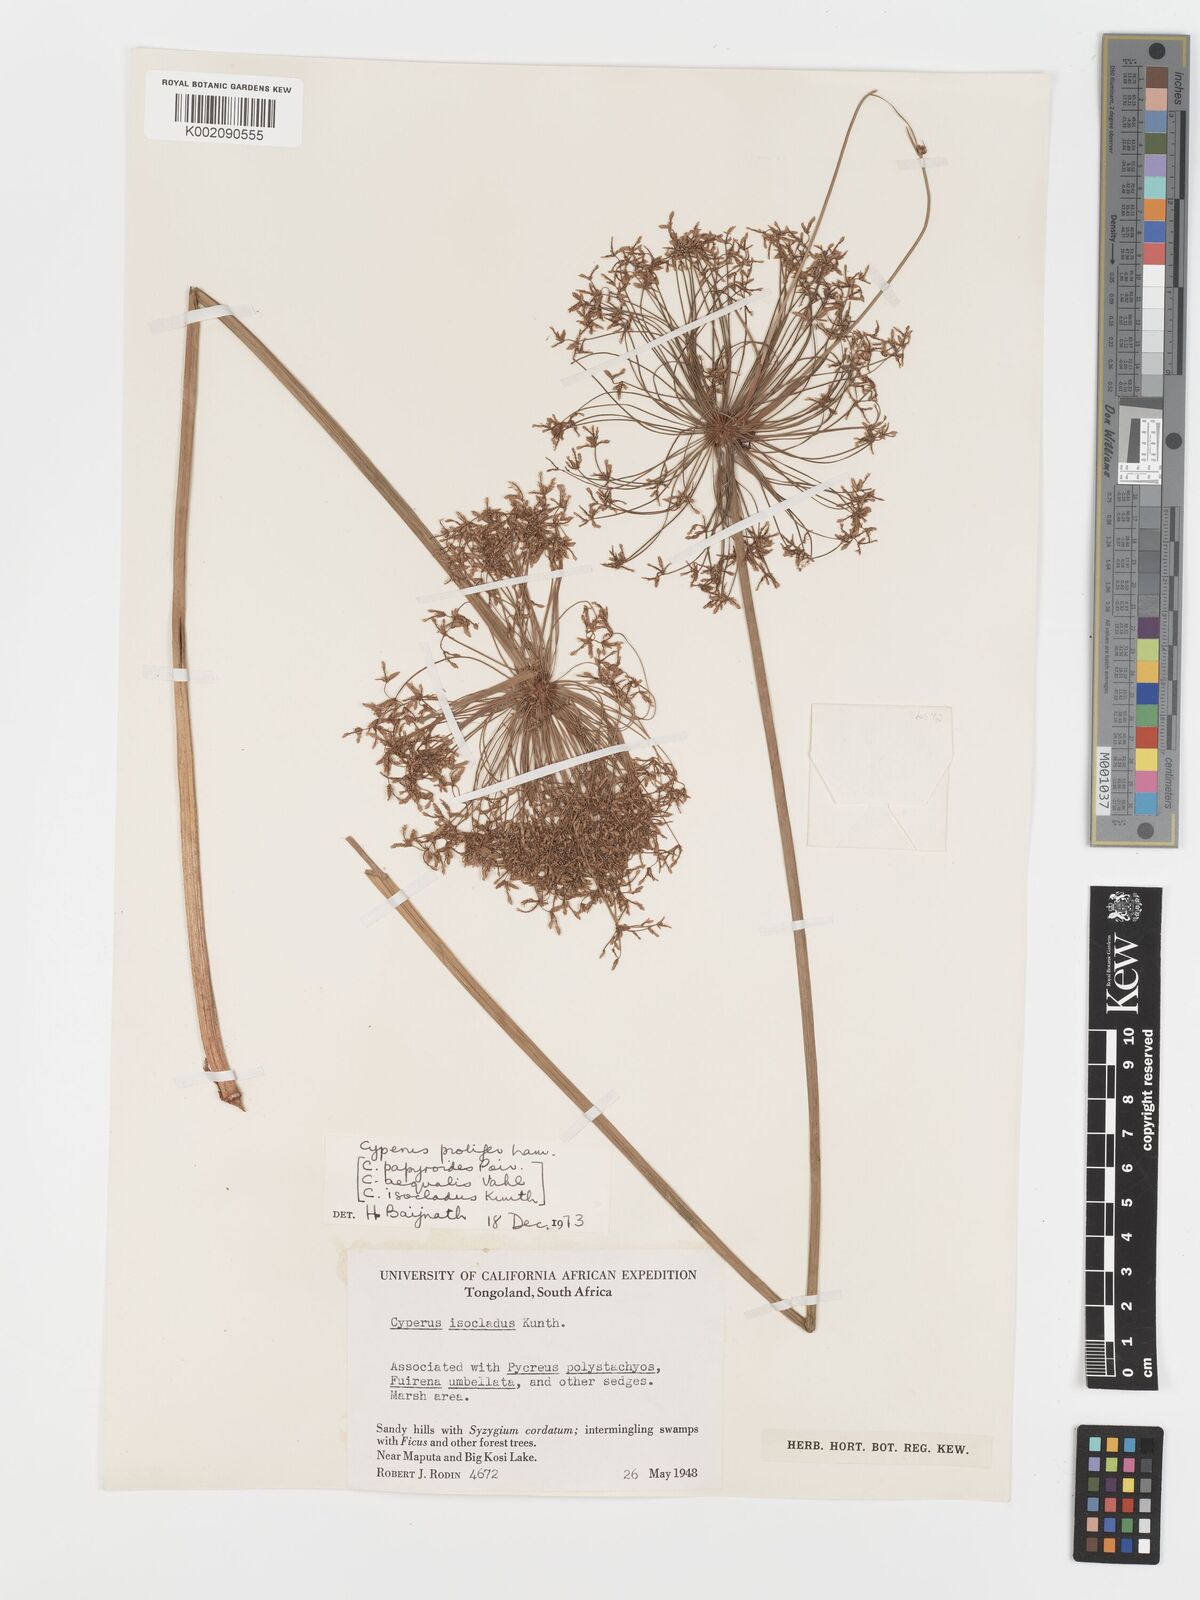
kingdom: Plantae
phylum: Tracheophyta
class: Liliopsida
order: Poales
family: Cyperaceae
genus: Cyperus
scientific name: Cyperus prolifer
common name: Miniature flatsedge
